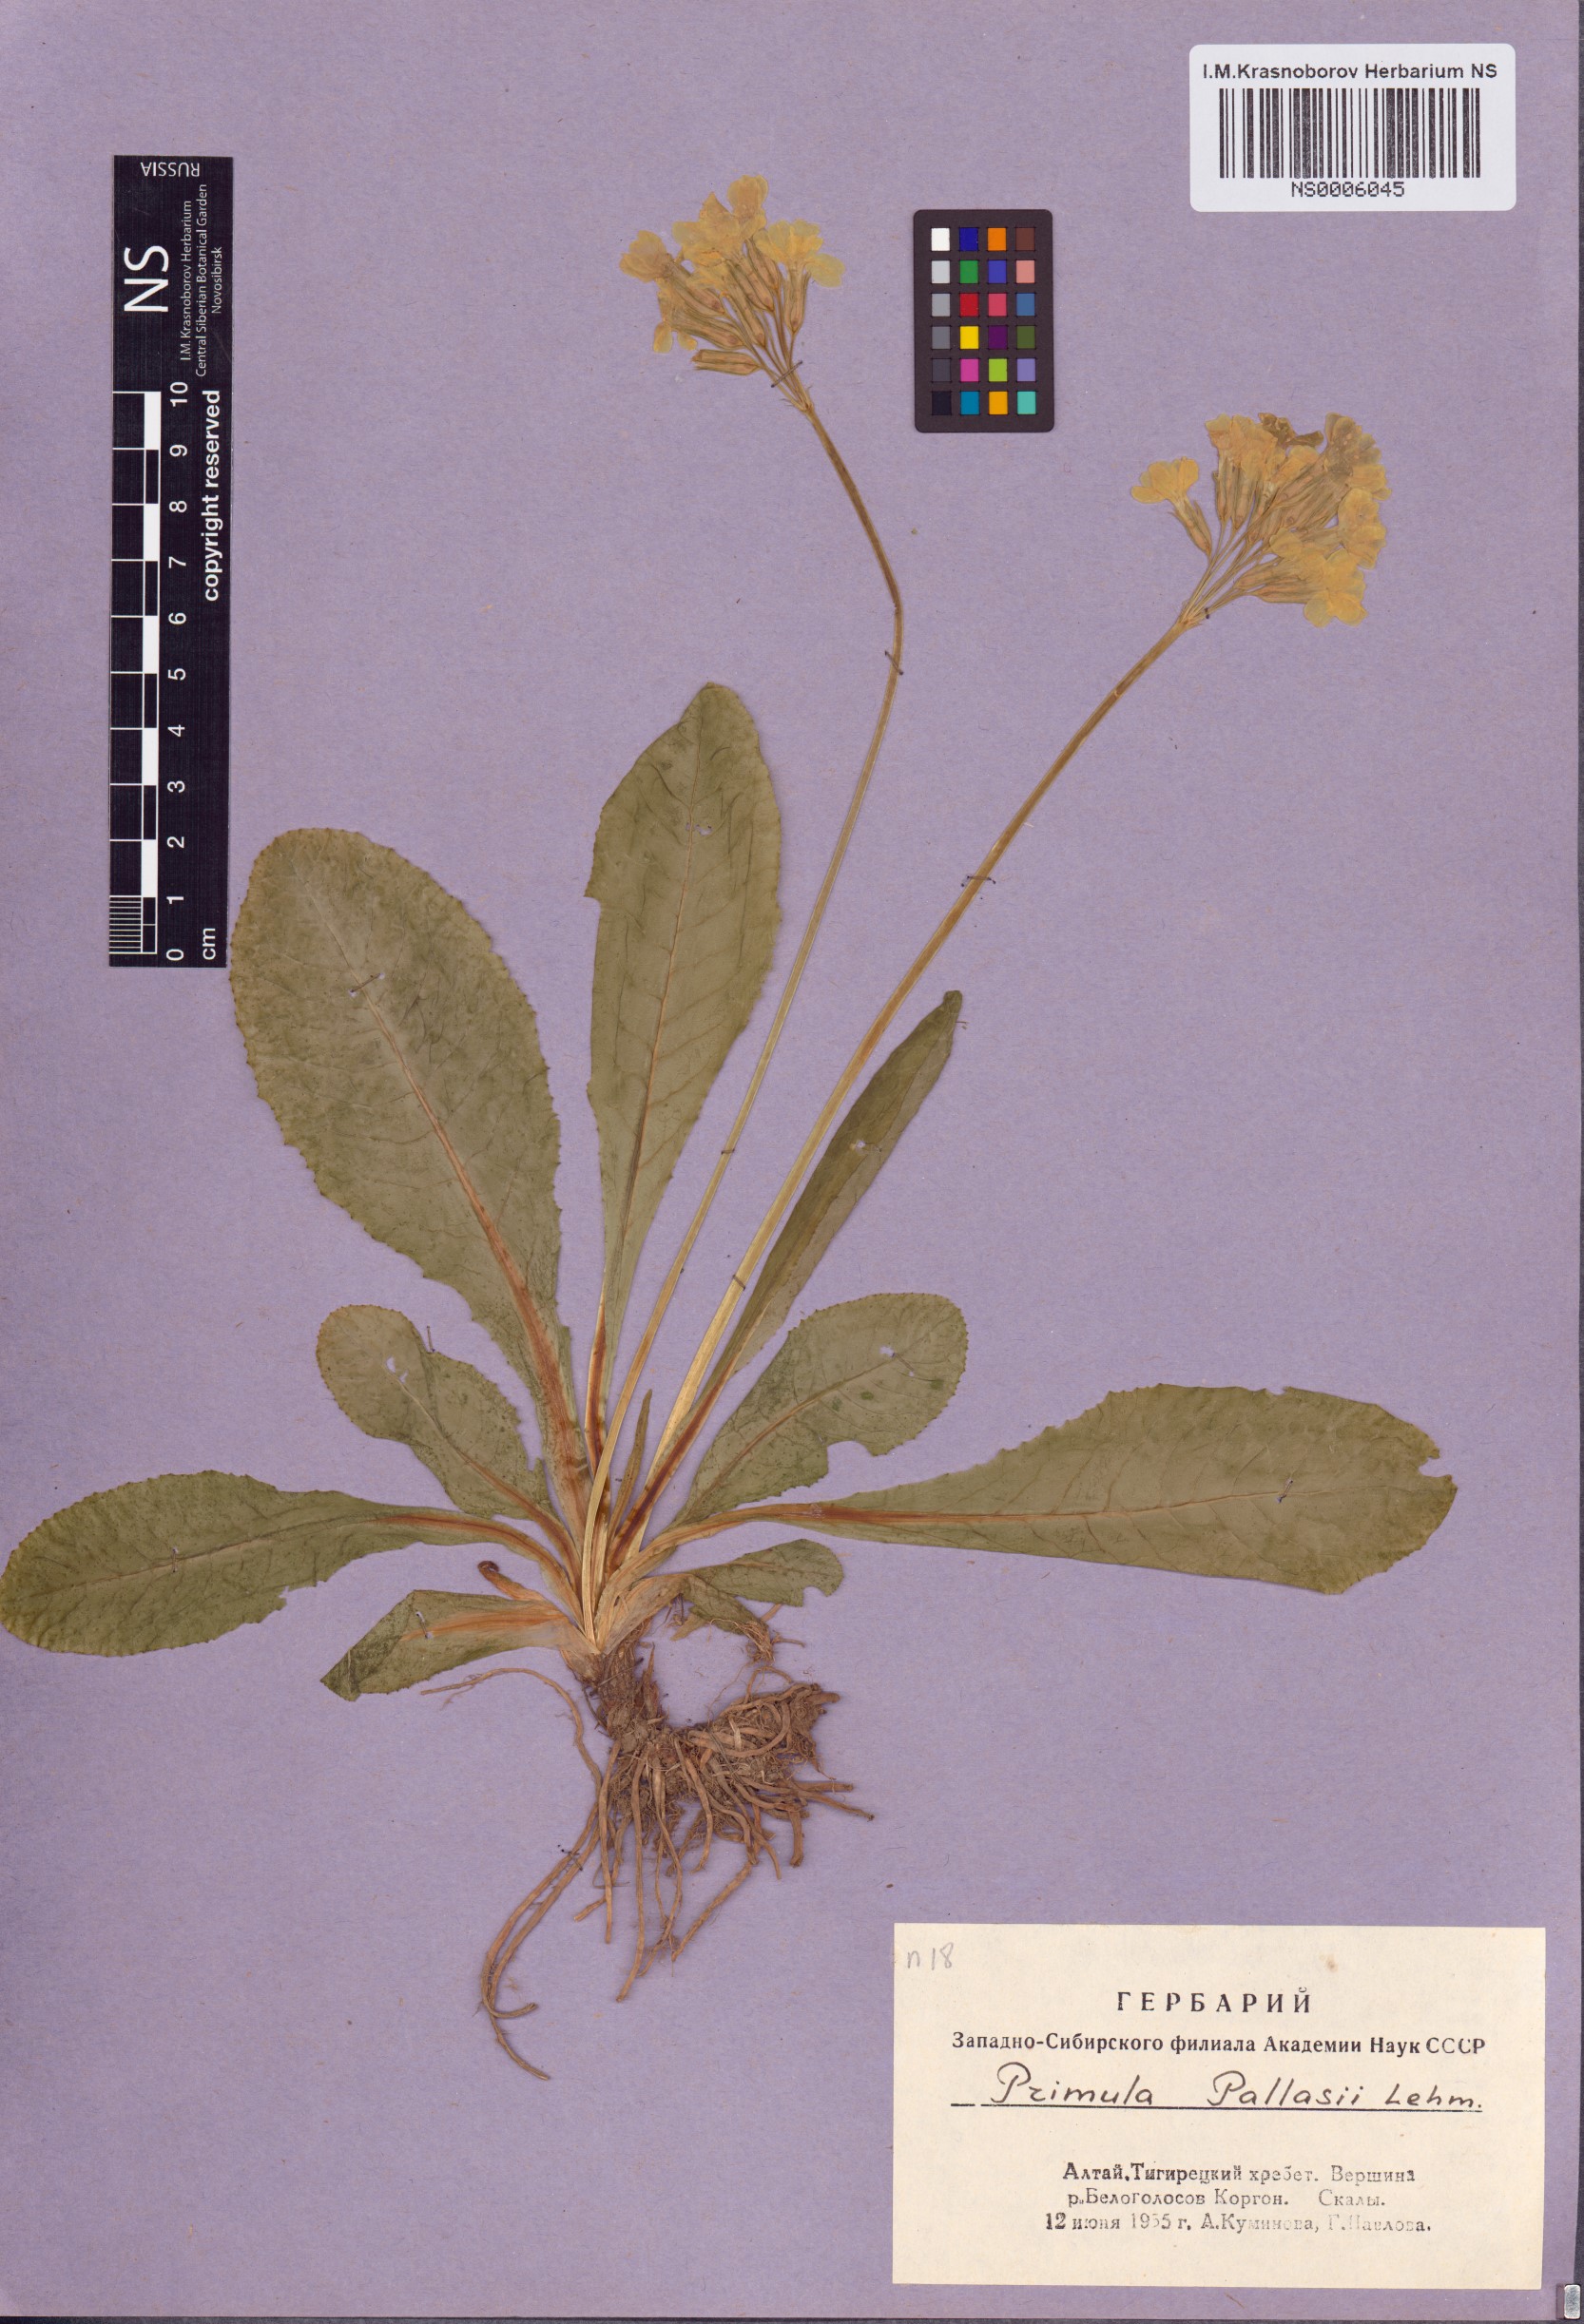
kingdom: Plantae
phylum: Tracheophyta
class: Magnoliopsida
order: Ericales
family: Primulaceae
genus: Primula
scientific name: Primula elatior
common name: Oxlip
